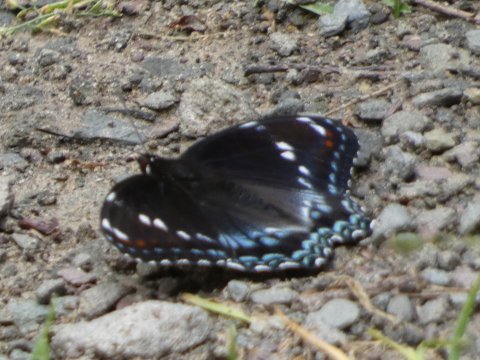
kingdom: Animalia
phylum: Arthropoda
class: Insecta
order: Lepidoptera
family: Nymphalidae
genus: Limenitis
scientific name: Limenitis arthemis
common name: Red-spotted Admiral
